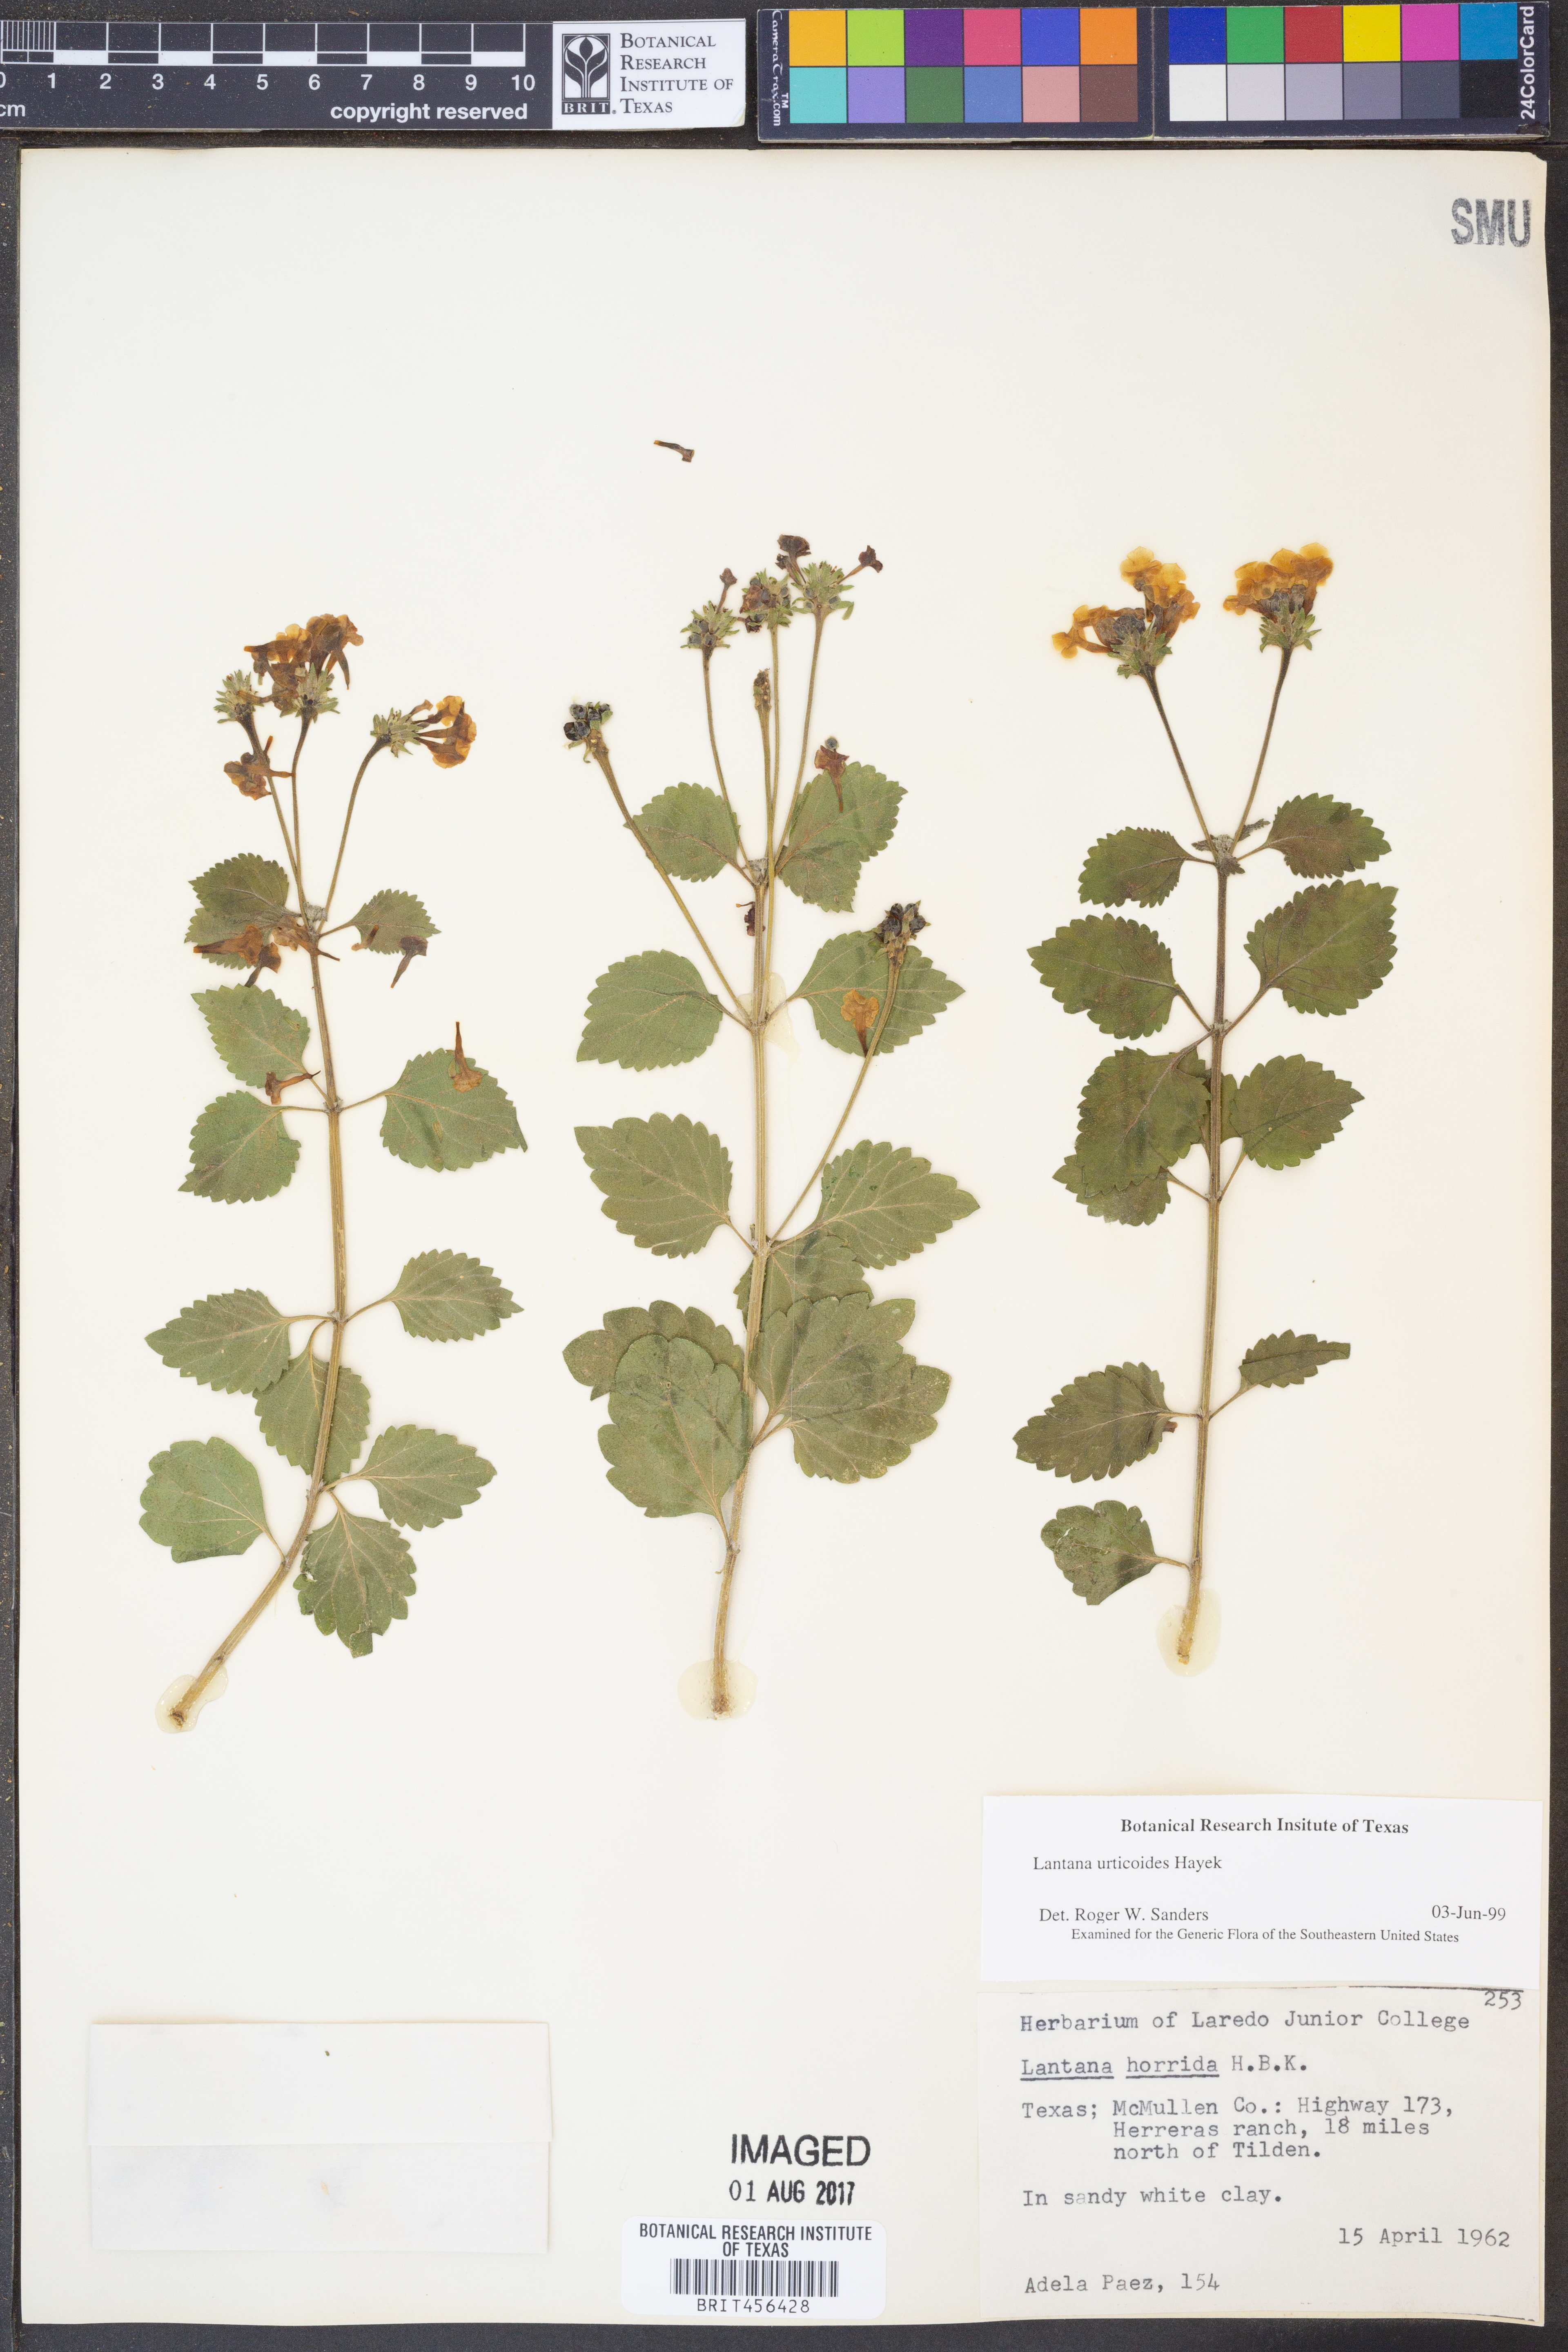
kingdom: Plantae
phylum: Tracheophyta
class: Magnoliopsida
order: Lamiales
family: Verbenaceae
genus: Lantana
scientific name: Lantana urticoides
